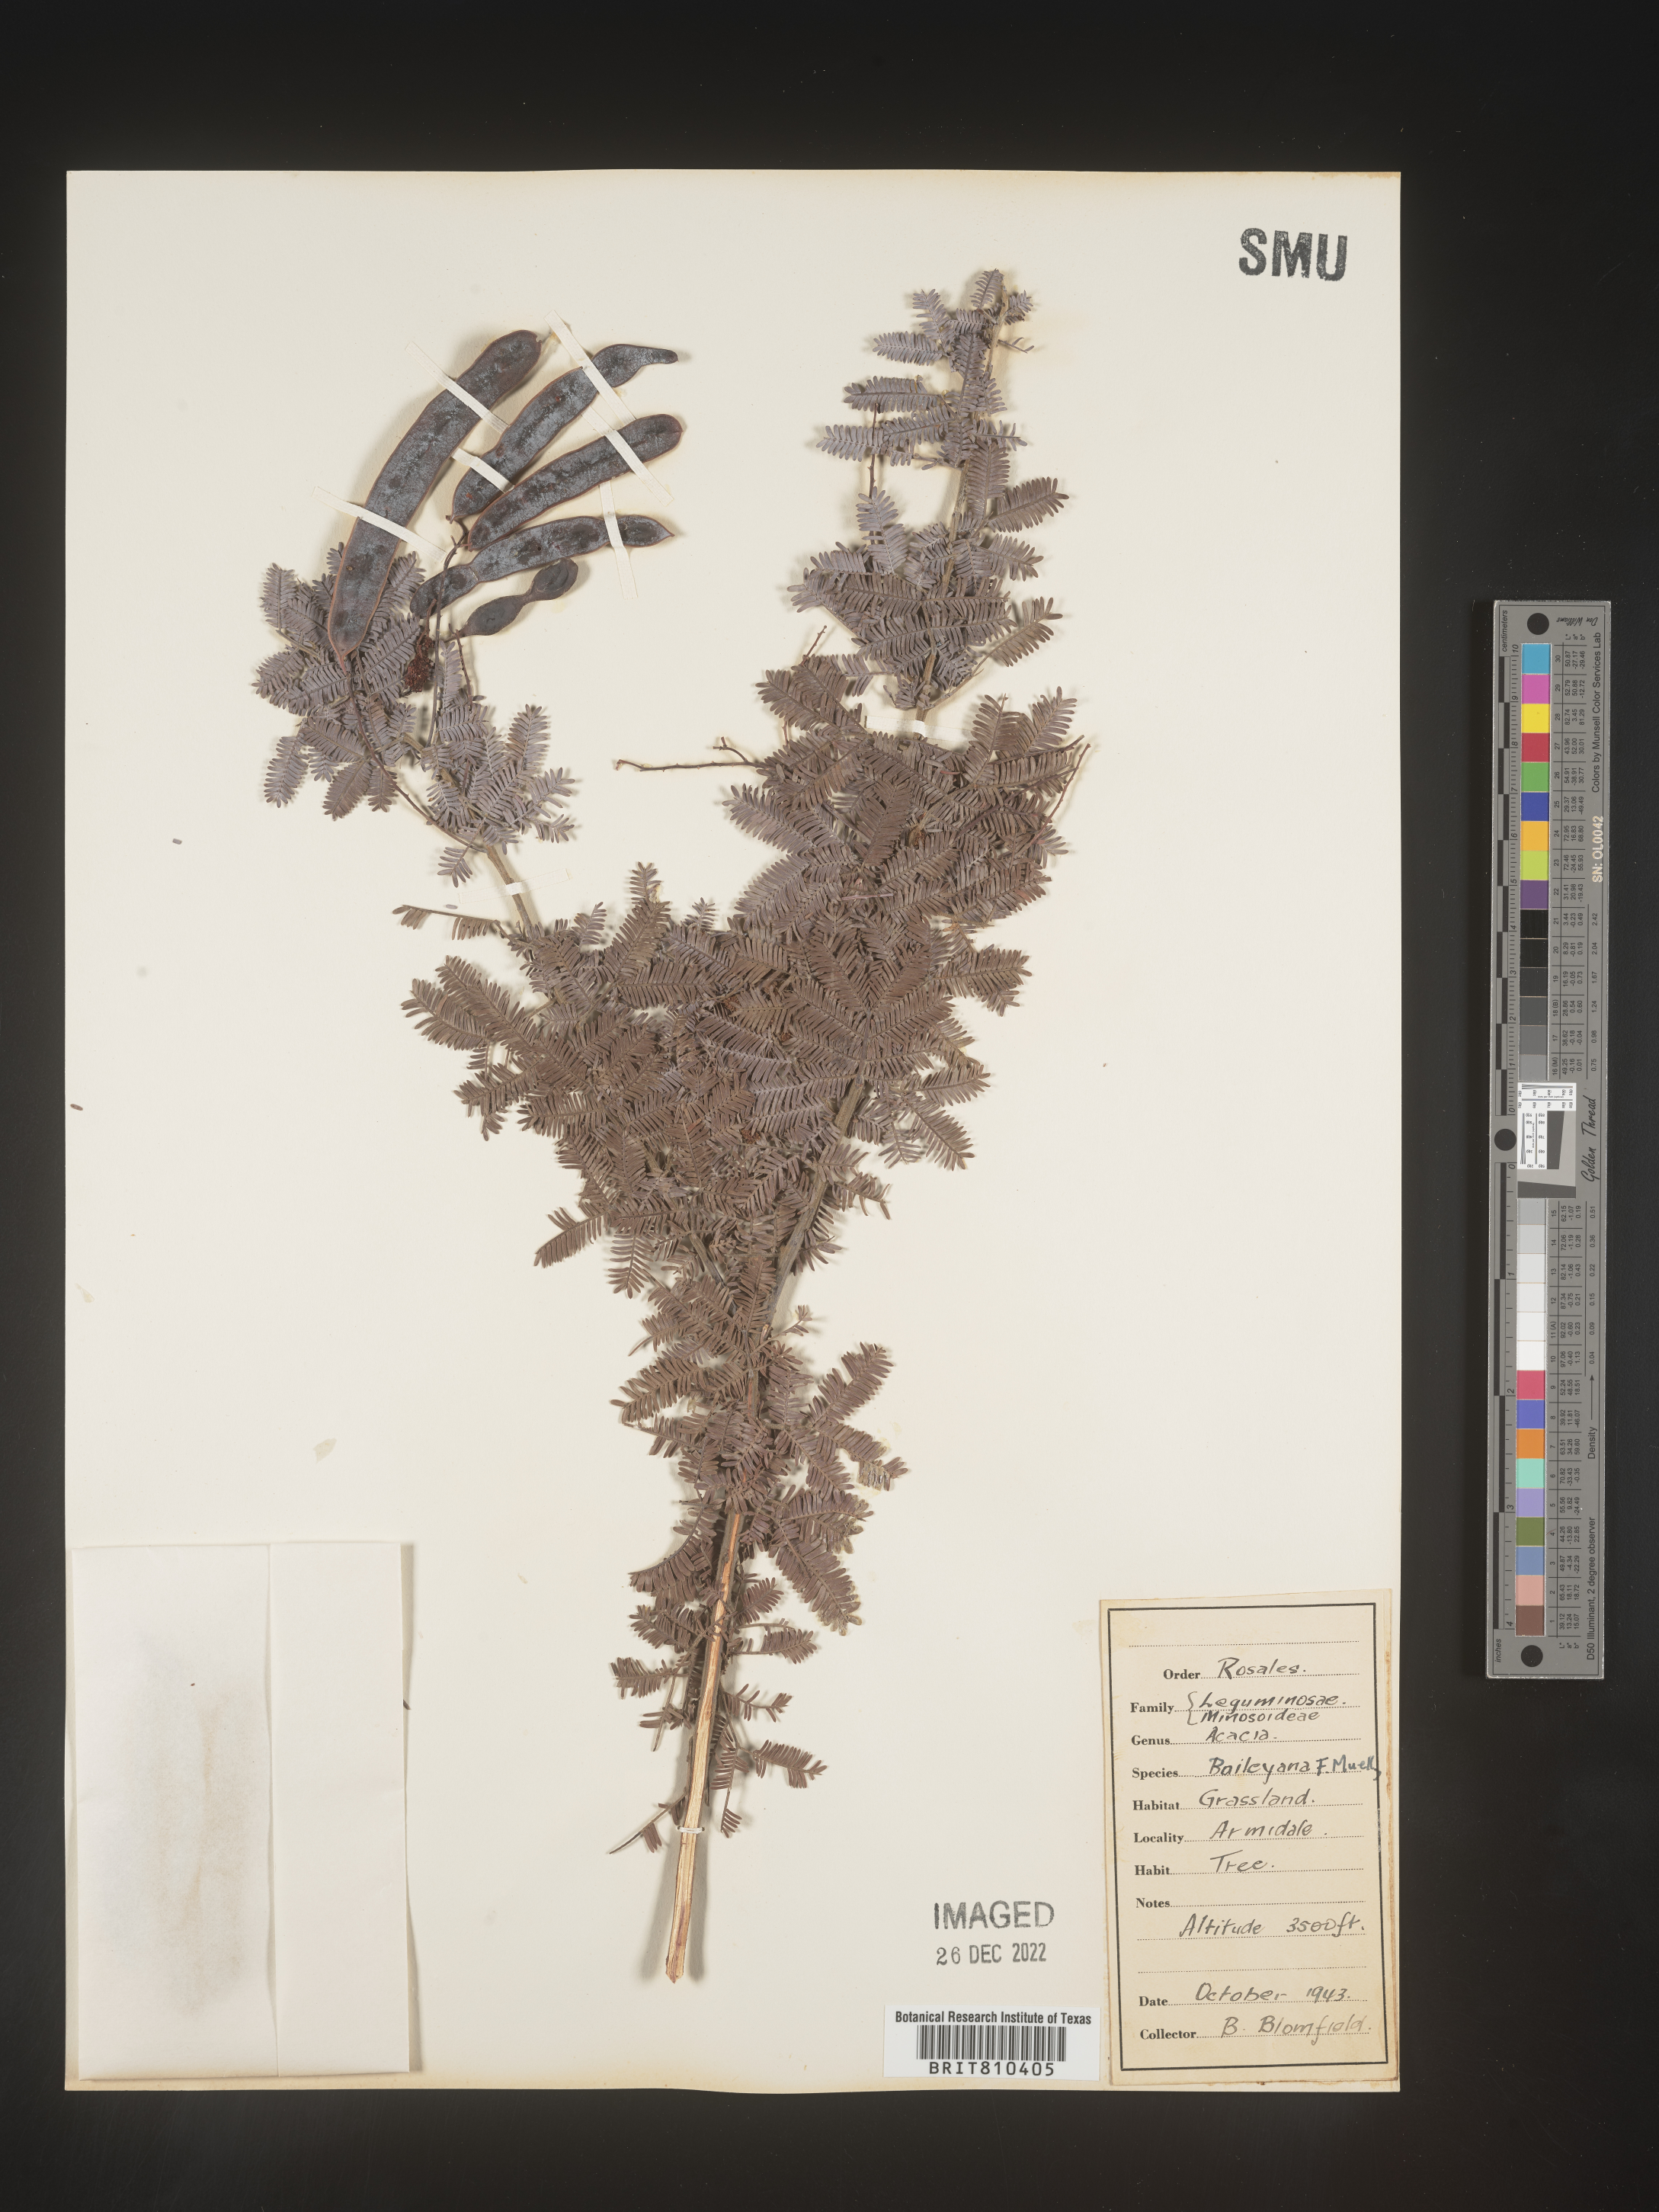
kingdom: Plantae
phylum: Tracheophyta
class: Magnoliopsida
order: Fabales
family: Fabaceae
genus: Acacia
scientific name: Acacia
